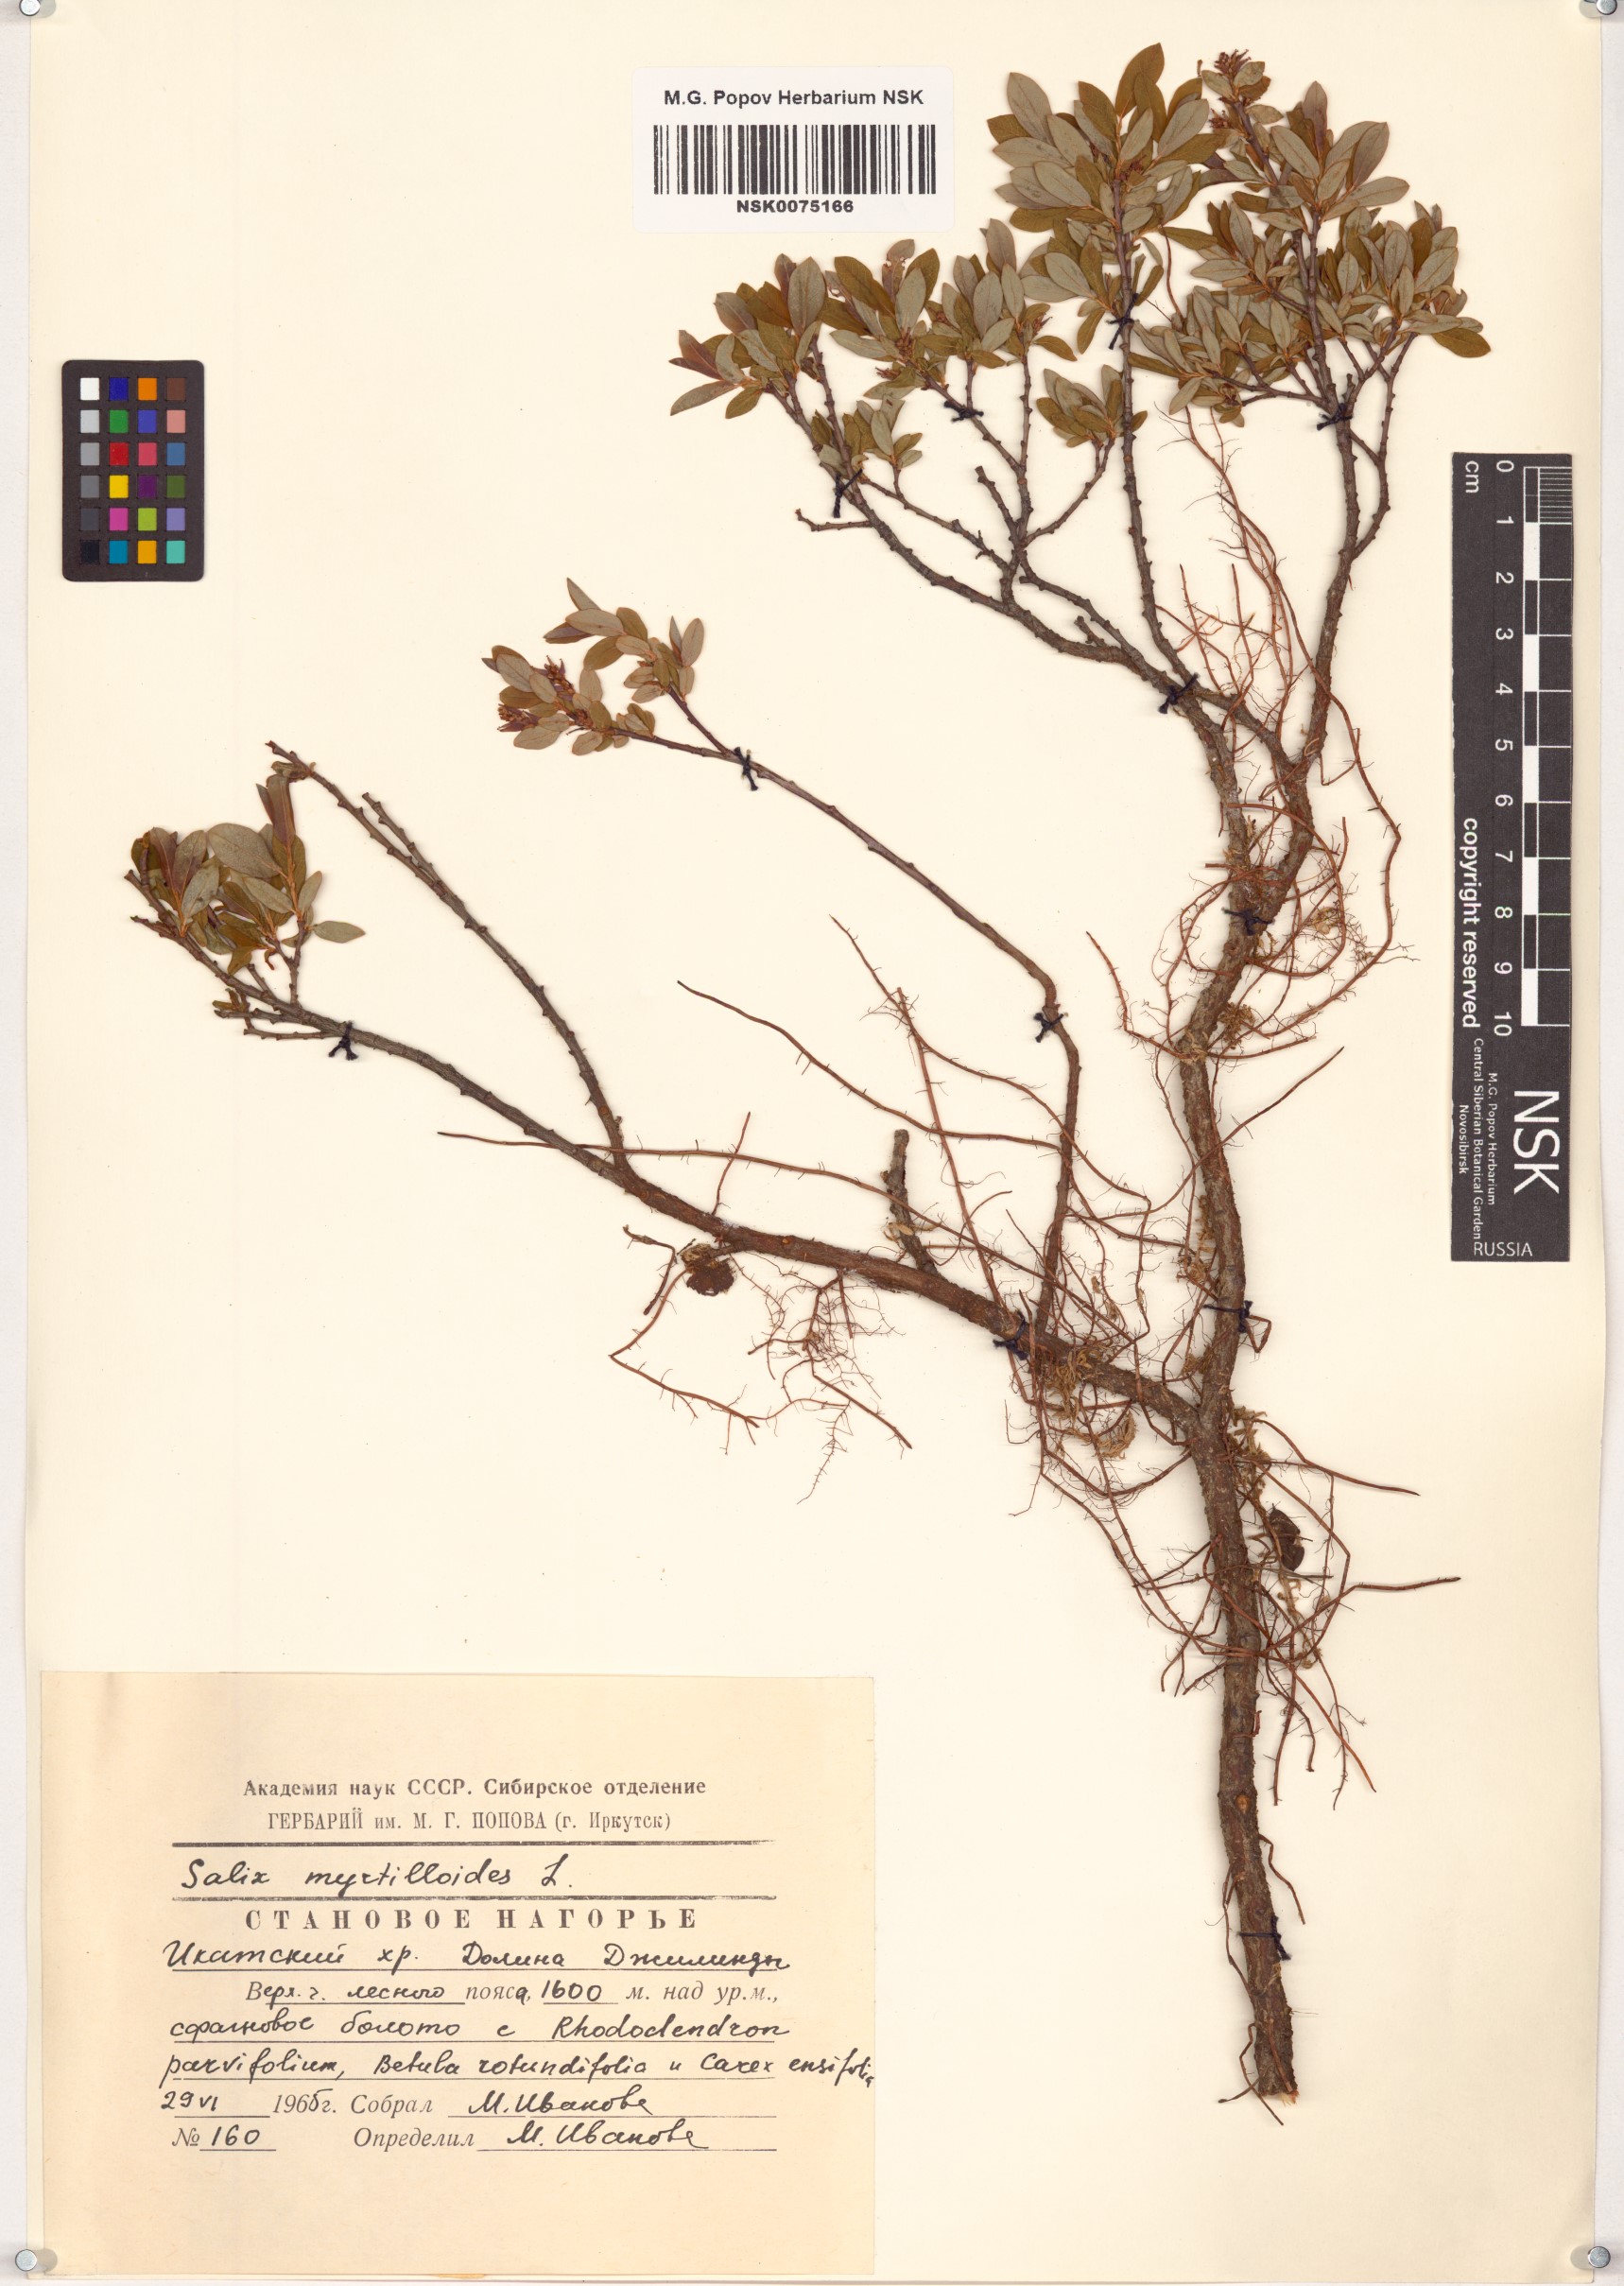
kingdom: Plantae
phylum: Tracheophyta
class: Magnoliopsida
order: Malpighiales
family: Salicaceae
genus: Salix
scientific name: Salix myrtilloides
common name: Myrtle-leaved willow
